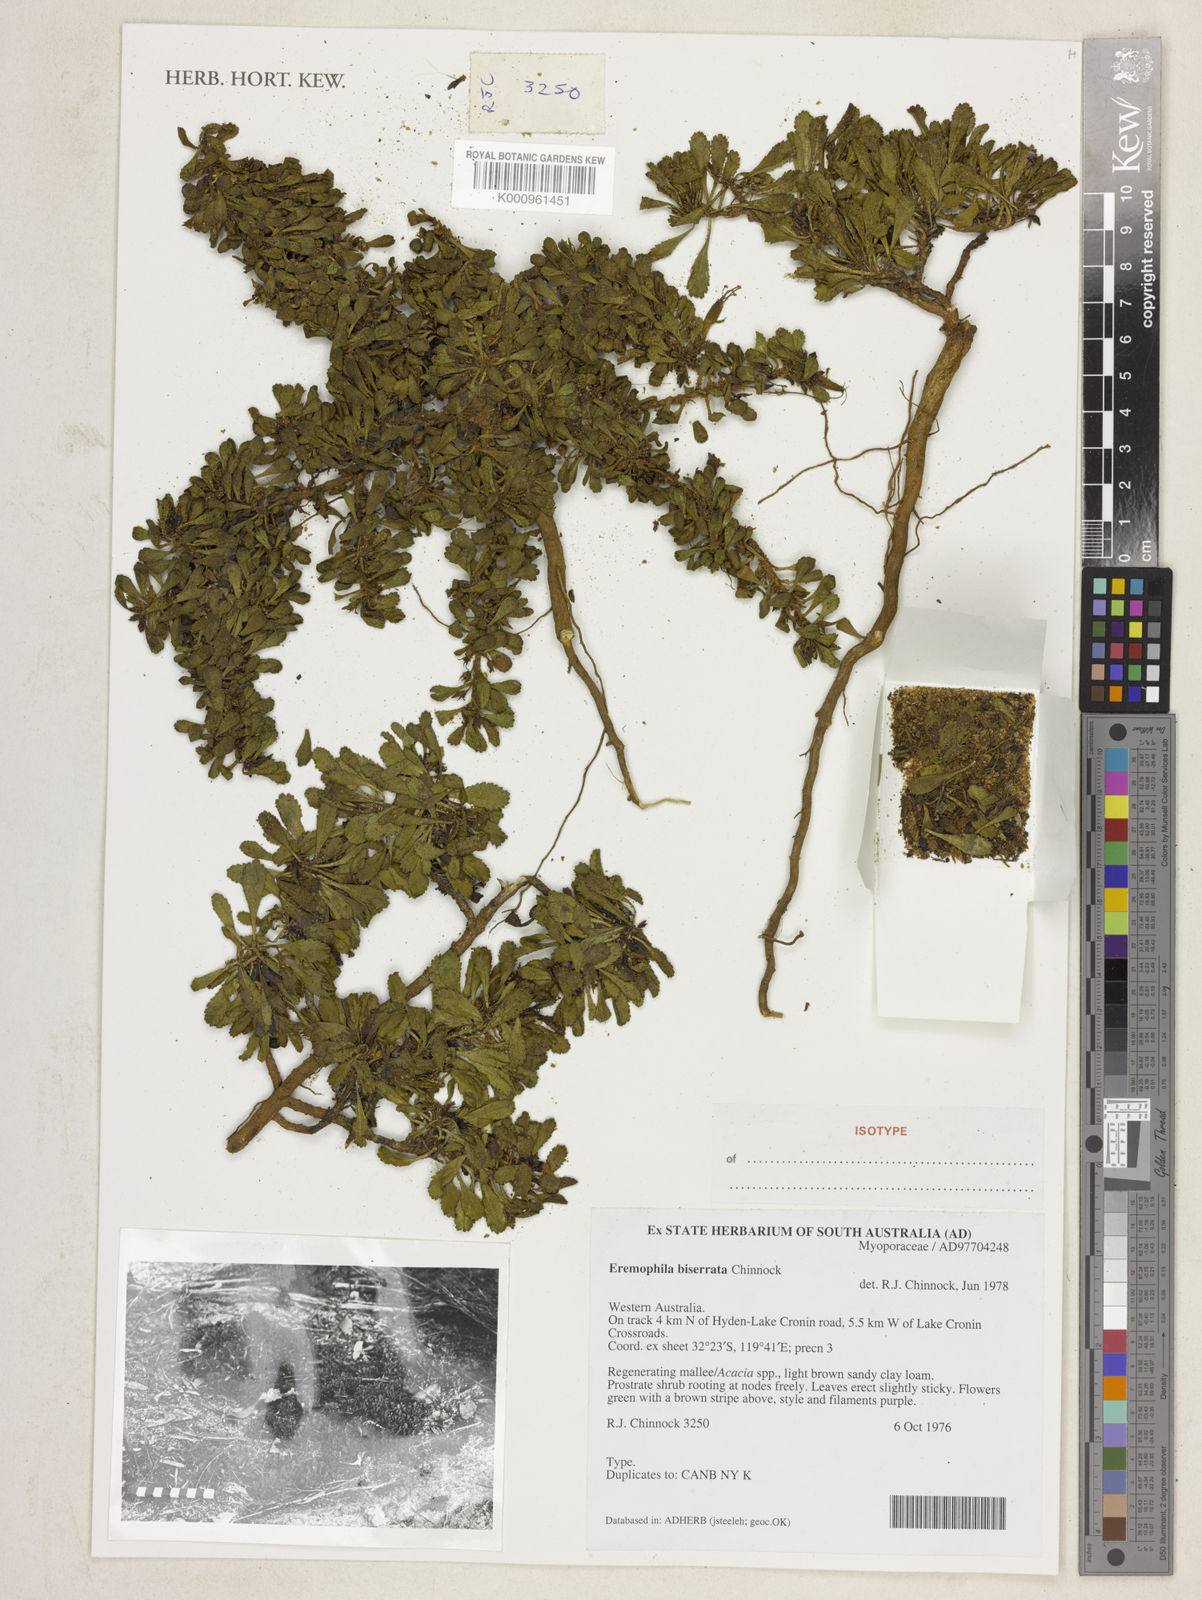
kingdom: Plantae
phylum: Tracheophyta
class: Magnoliopsida
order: Lamiales
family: Scrophulariaceae
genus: Eremophila
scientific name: Eremophila biserrata
